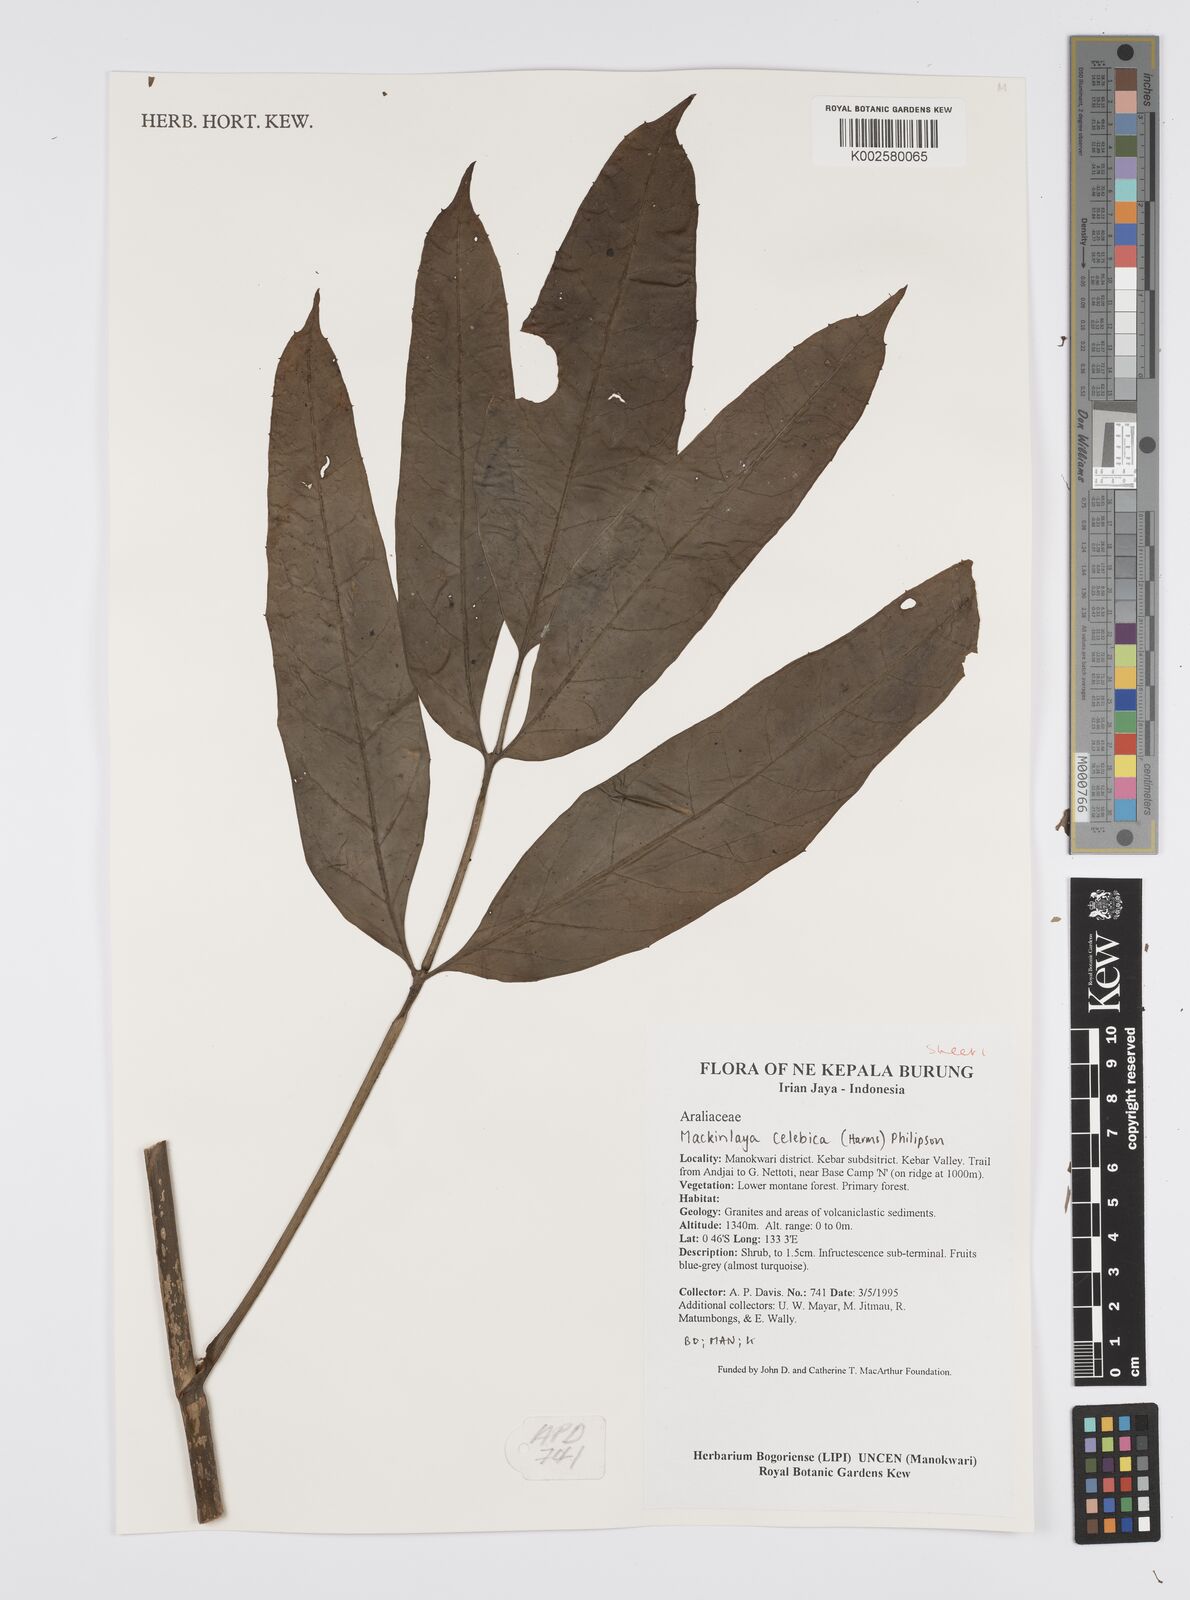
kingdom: Plantae
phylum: Tracheophyta
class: Magnoliopsida
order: Apiales
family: Apiaceae
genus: Mackinlaya
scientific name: Mackinlaya
